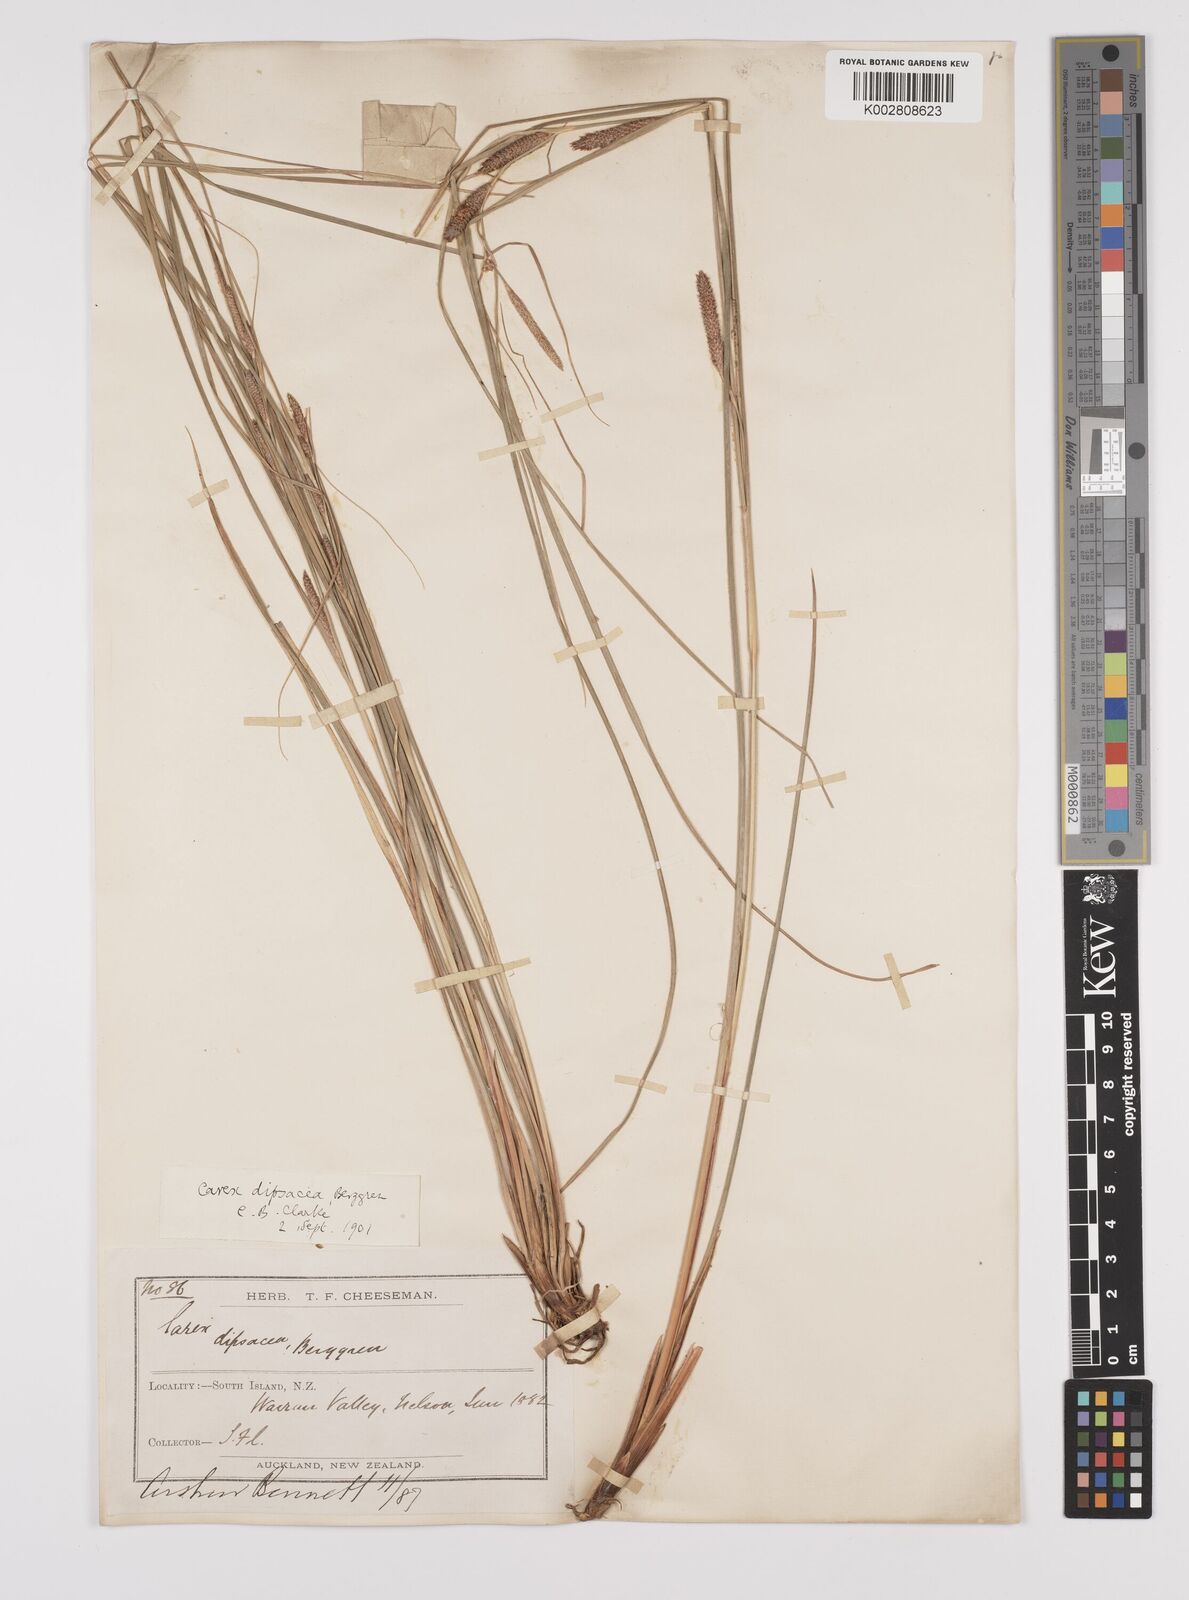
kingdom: Plantae
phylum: Tracheophyta
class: Liliopsida
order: Poales
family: Cyperaceae
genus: Carex
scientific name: Carex dipsacea
